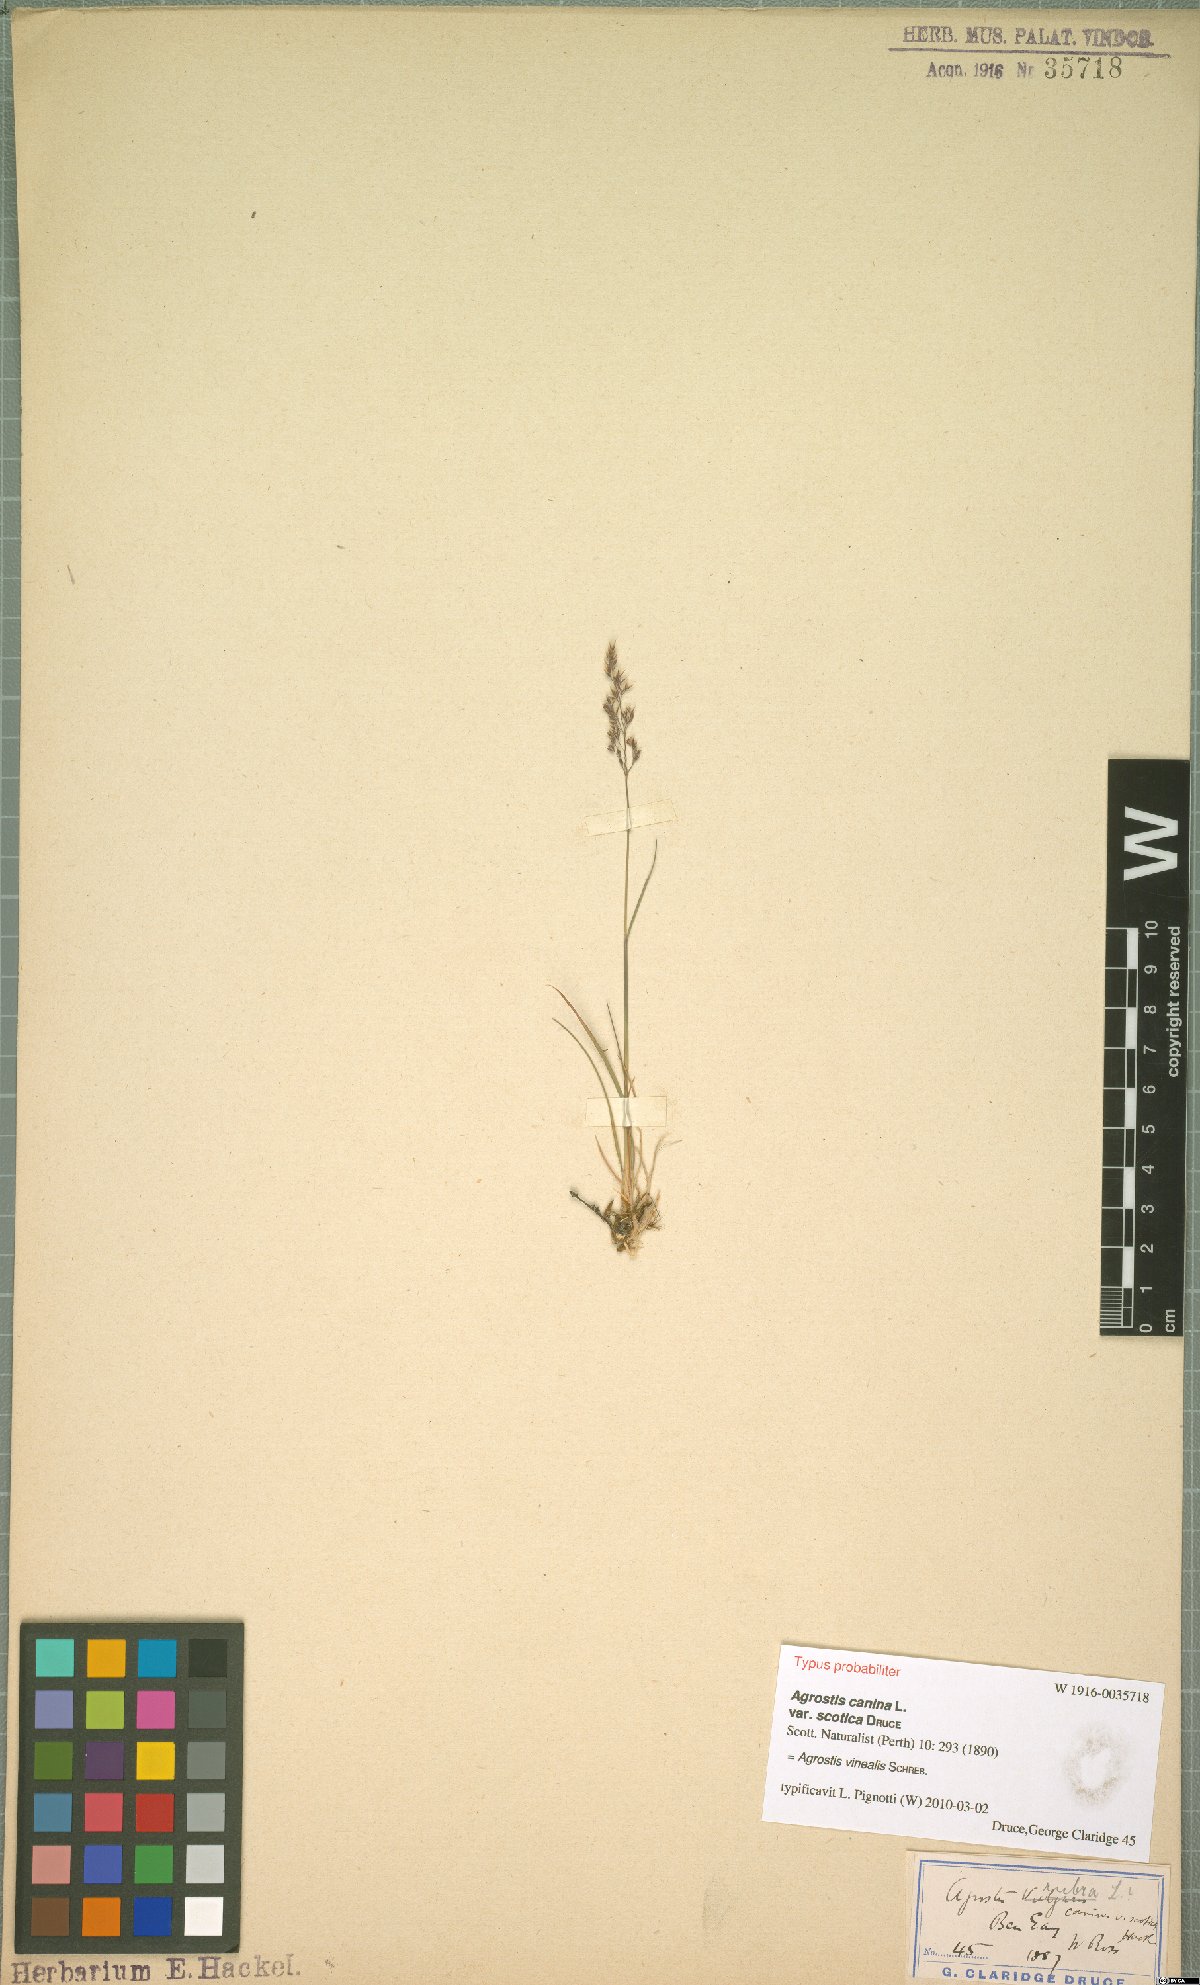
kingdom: Plantae
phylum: Tracheophyta
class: Liliopsida
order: Poales
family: Poaceae
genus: Agrostis
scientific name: Agrostis vinealis
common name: Brown bent
